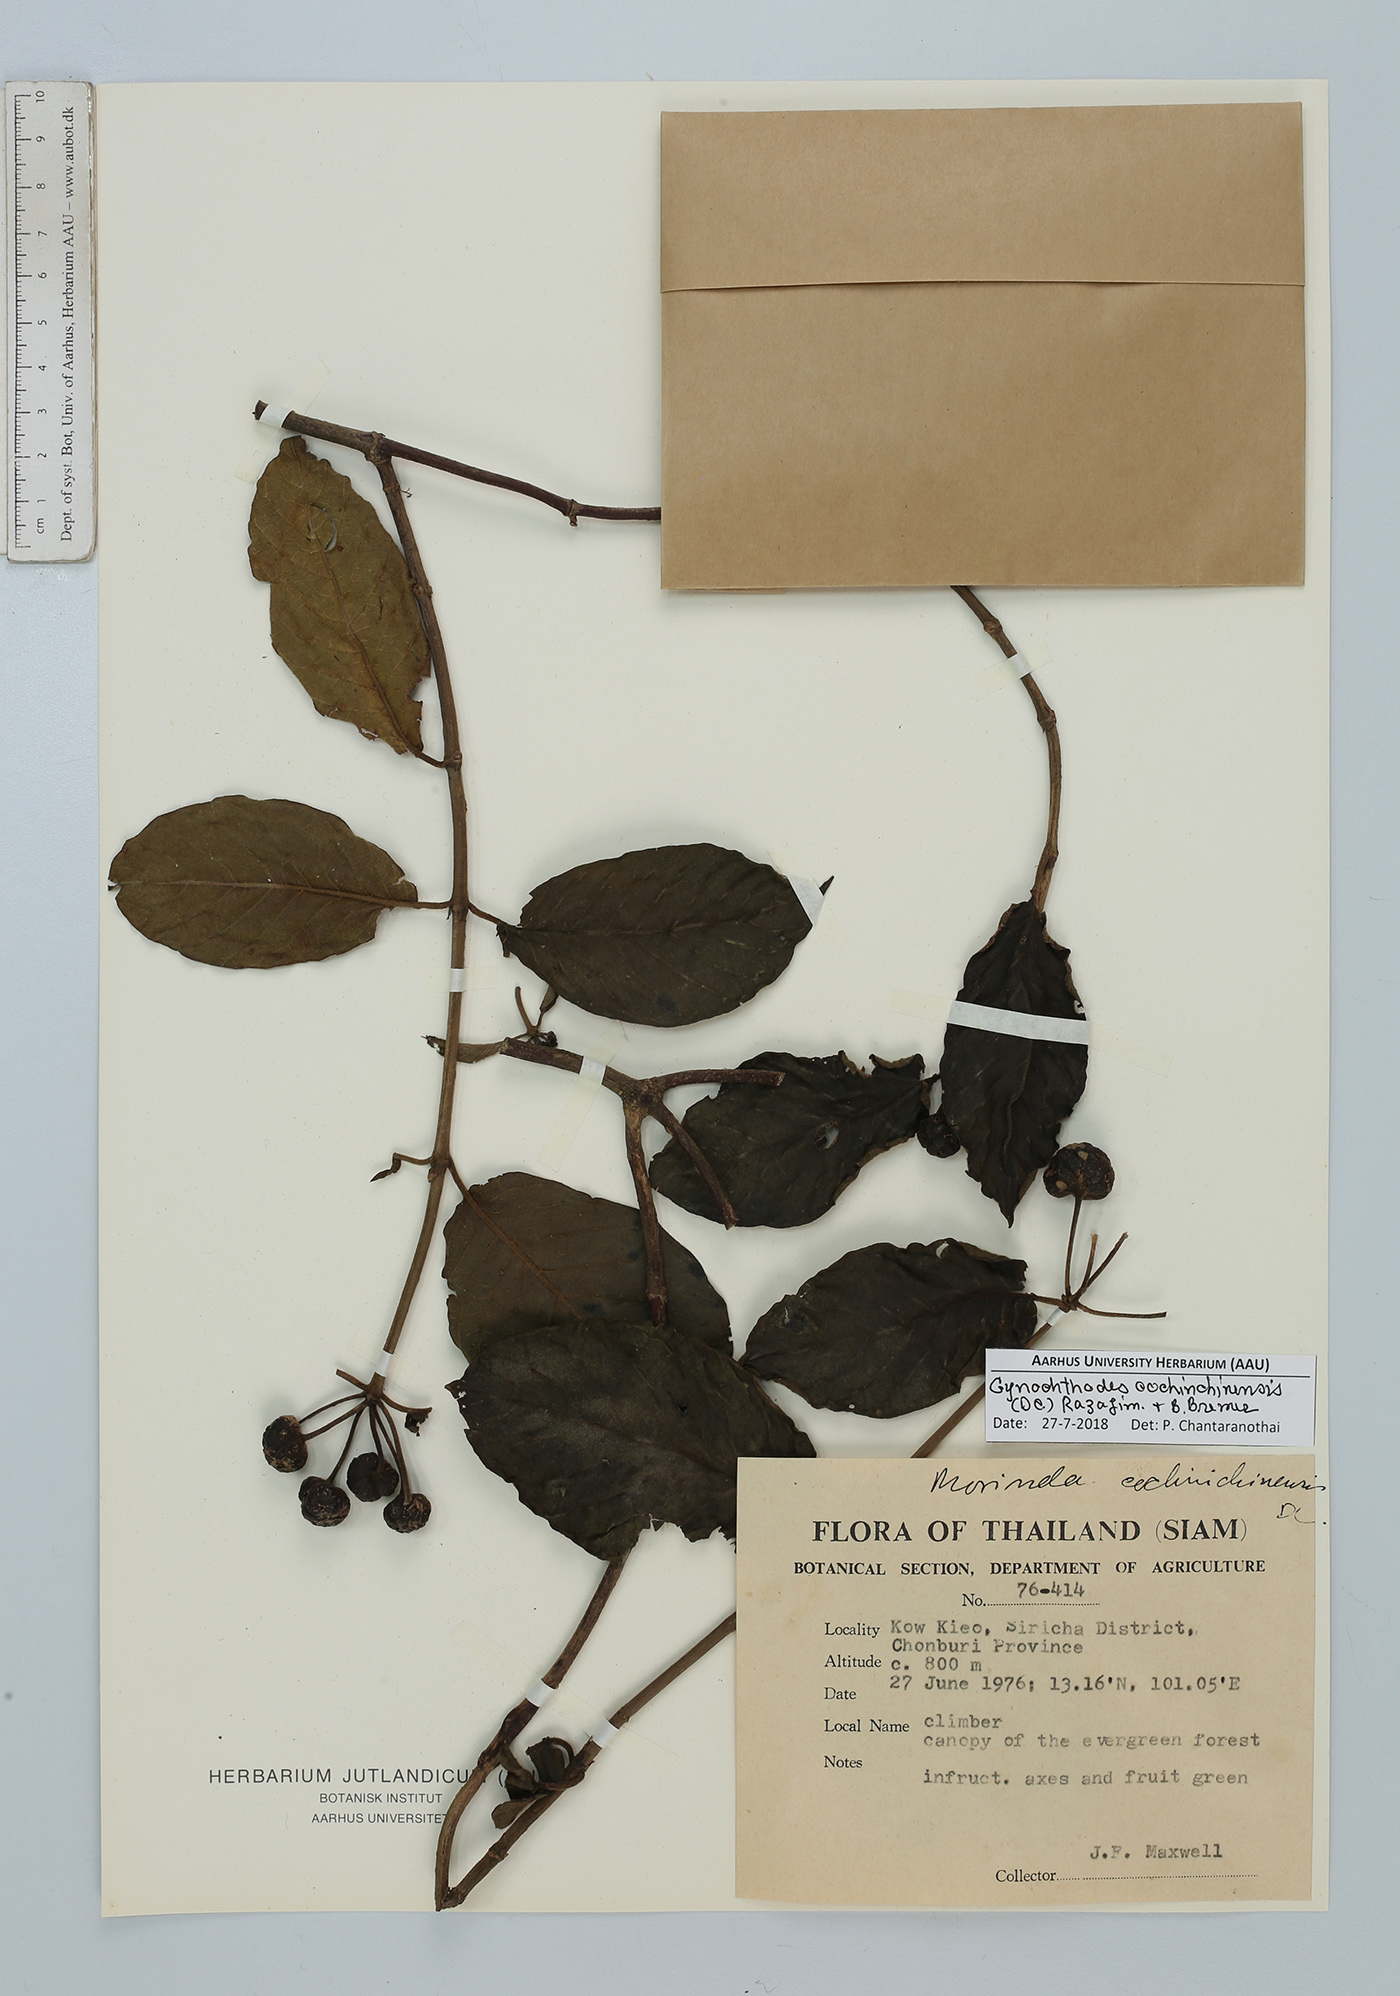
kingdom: Plantae
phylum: Tracheophyta
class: Magnoliopsida
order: Gentianales
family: Rubiaceae
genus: Gynochthodes
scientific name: Gynochthodes cochinchinensis
